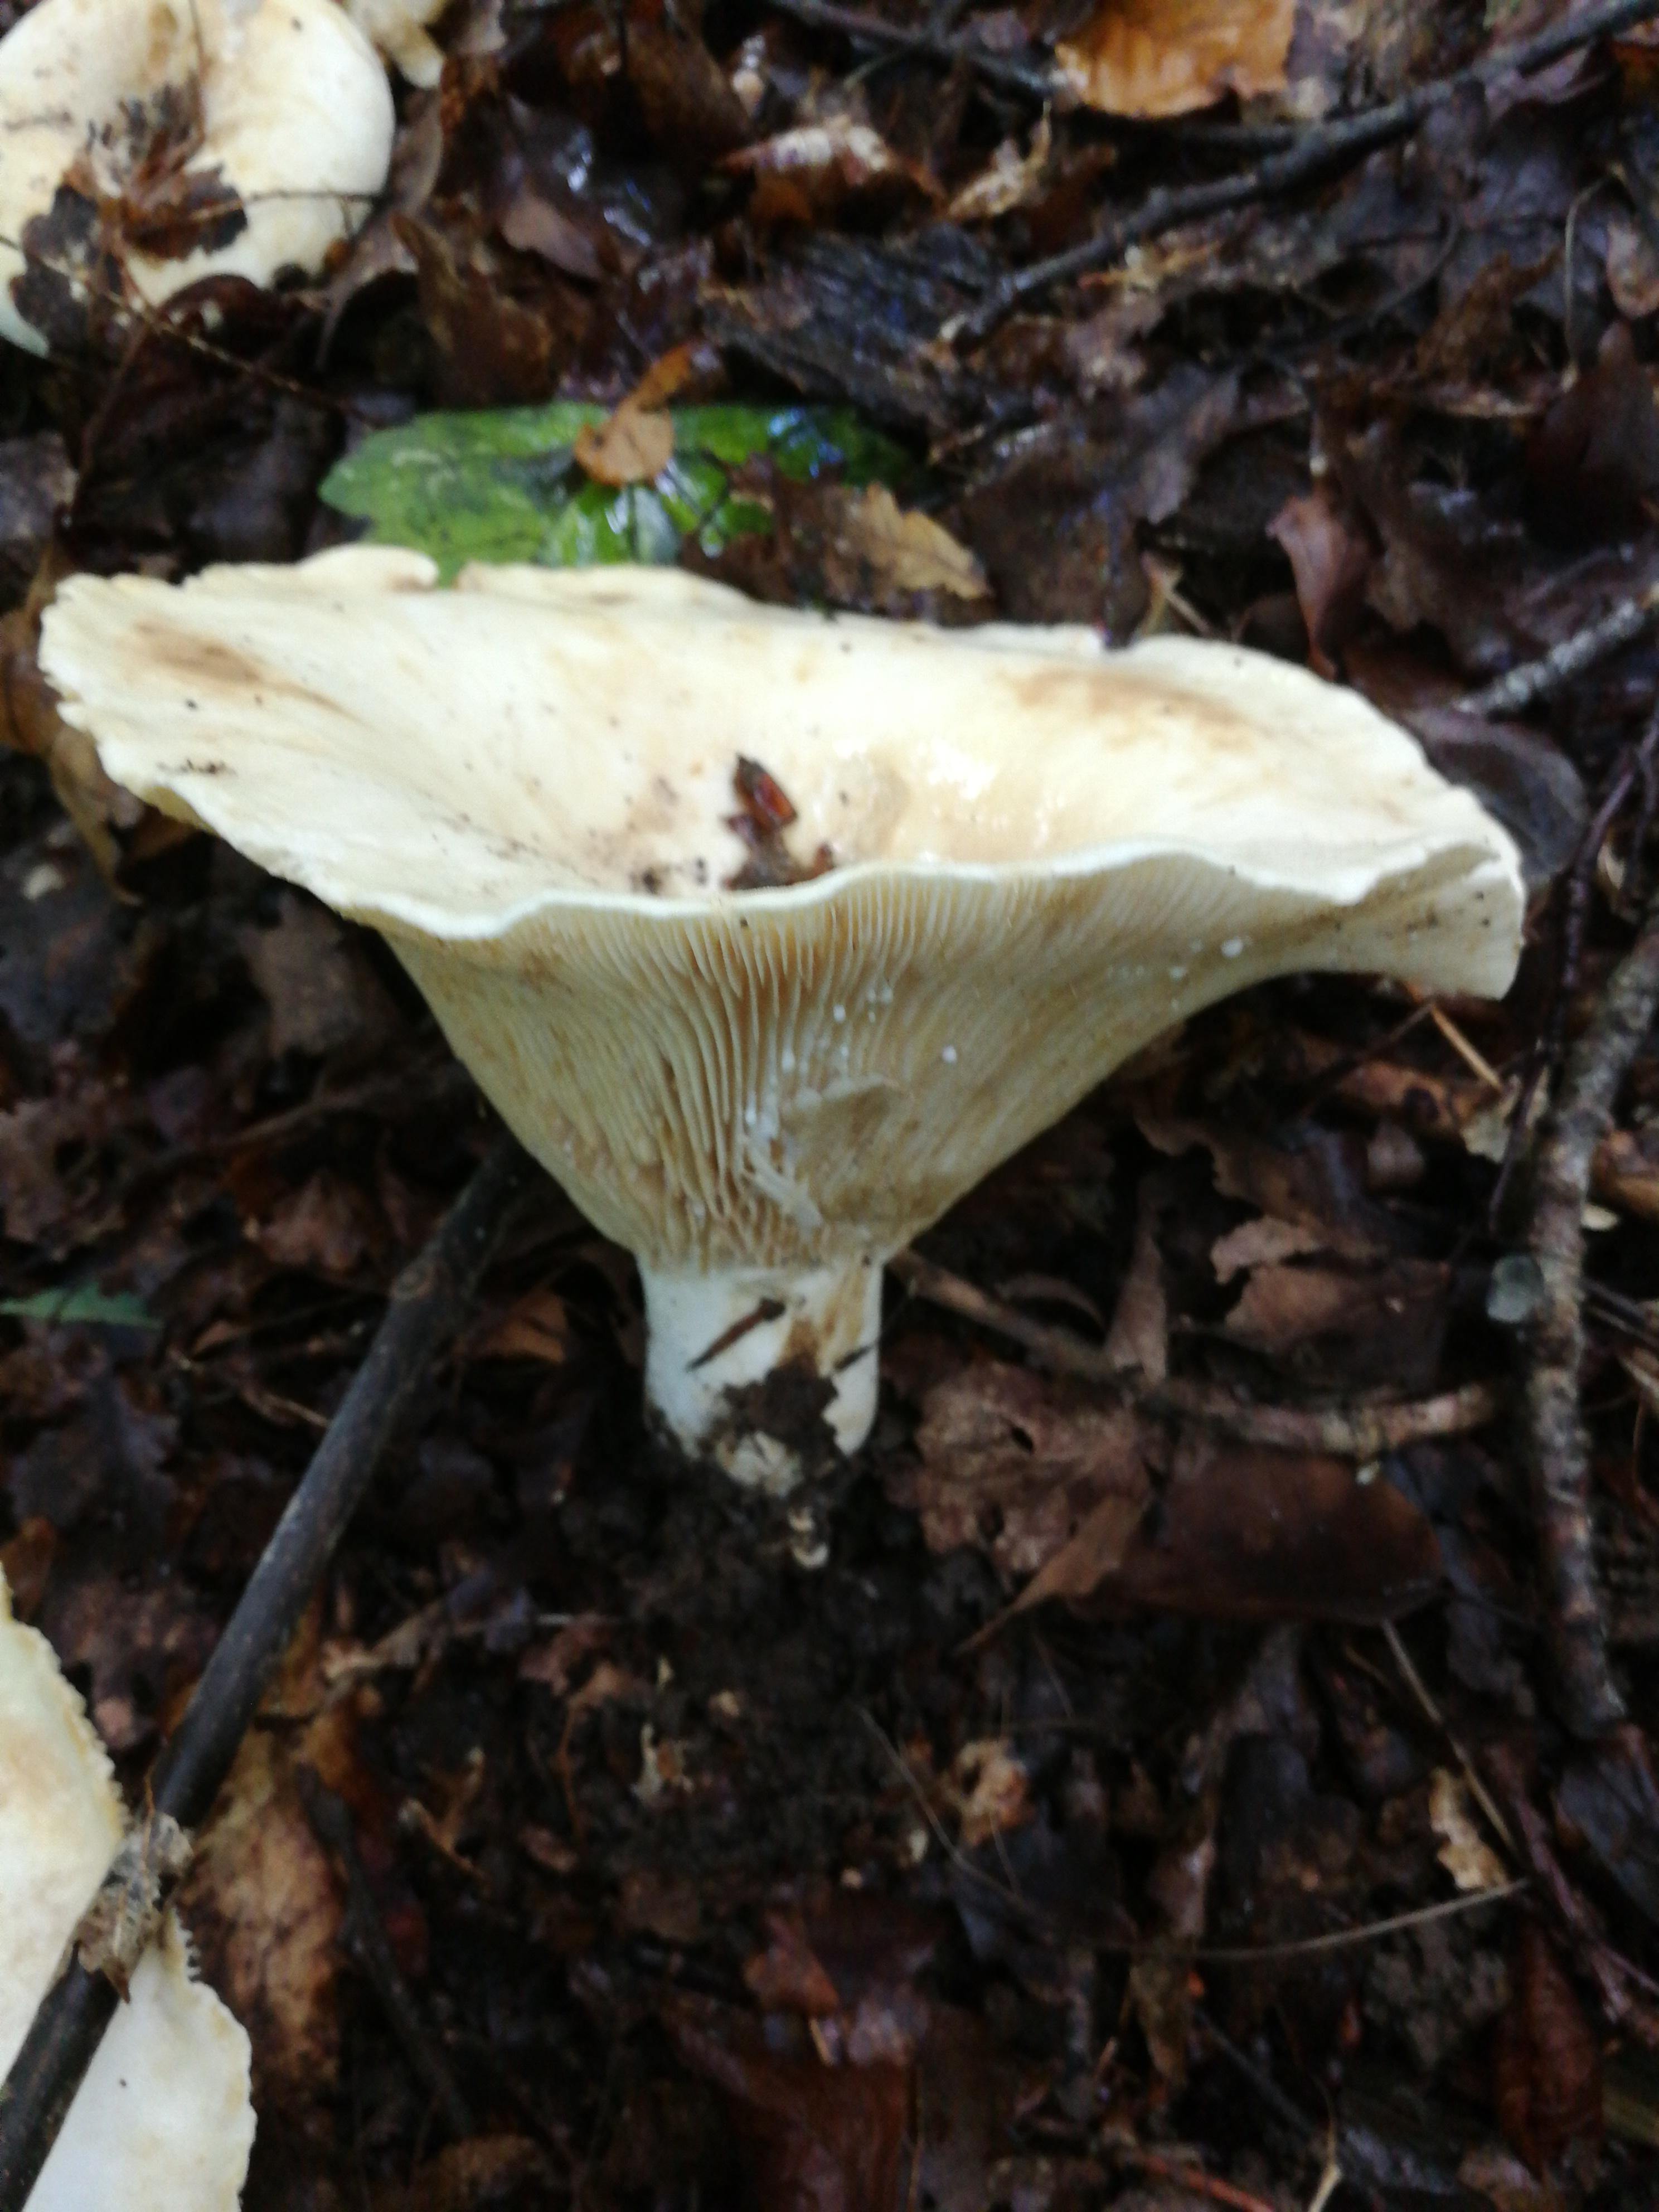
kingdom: Fungi
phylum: Basidiomycota
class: Agaricomycetes
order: Russulales
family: Russulaceae
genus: Lactifluus
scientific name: Lactifluus
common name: mælkehat
